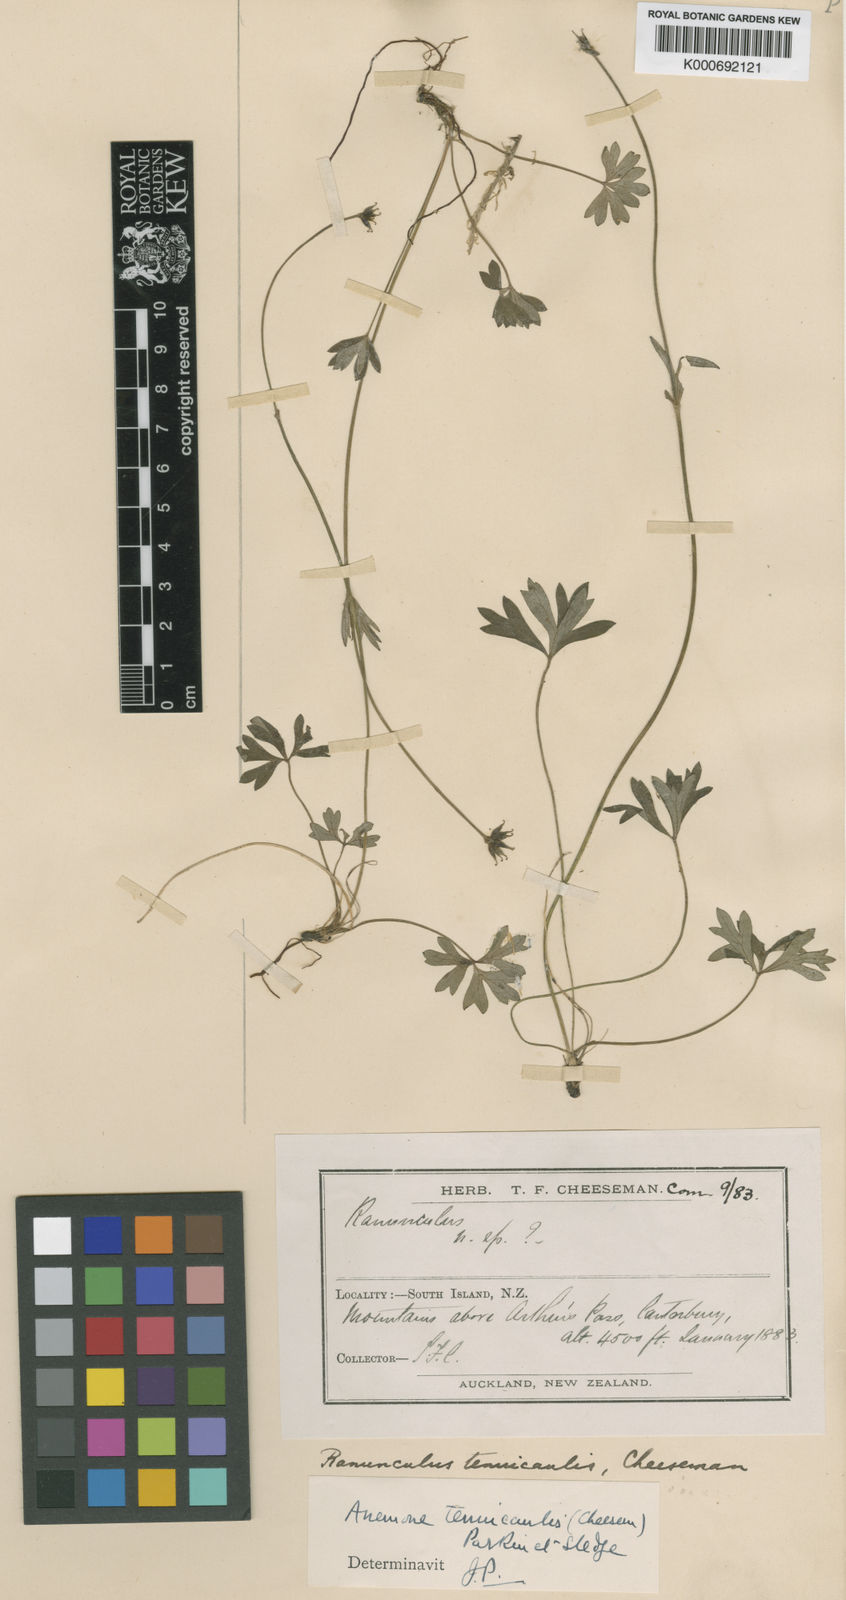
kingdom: Plantae
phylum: Tracheophyta
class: Magnoliopsida
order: Ranunculales
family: Ranunculaceae
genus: Anemonastrum
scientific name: Anemonastrum tenuicaule
